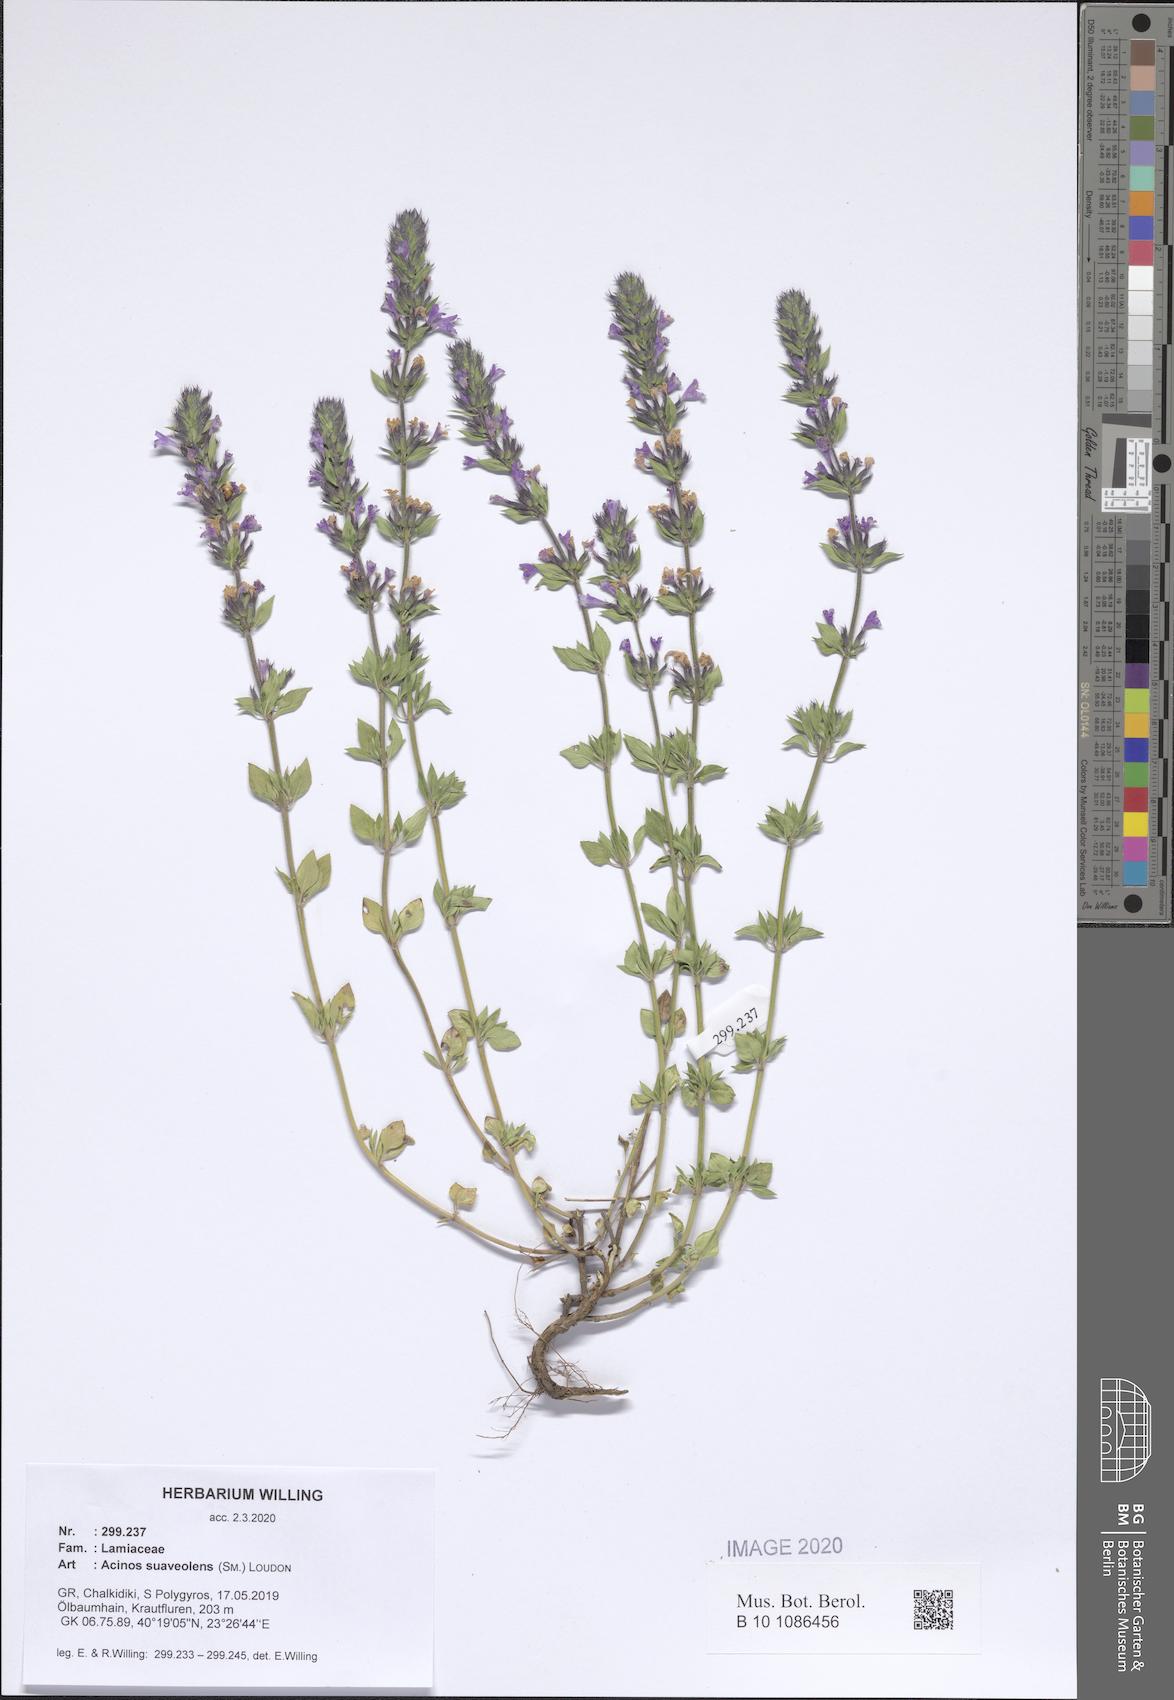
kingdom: Plantae
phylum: Tracheophyta
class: Magnoliopsida
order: Lamiales
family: Lamiaceae
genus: Clinopodium
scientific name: Clinopodium suaveolens
